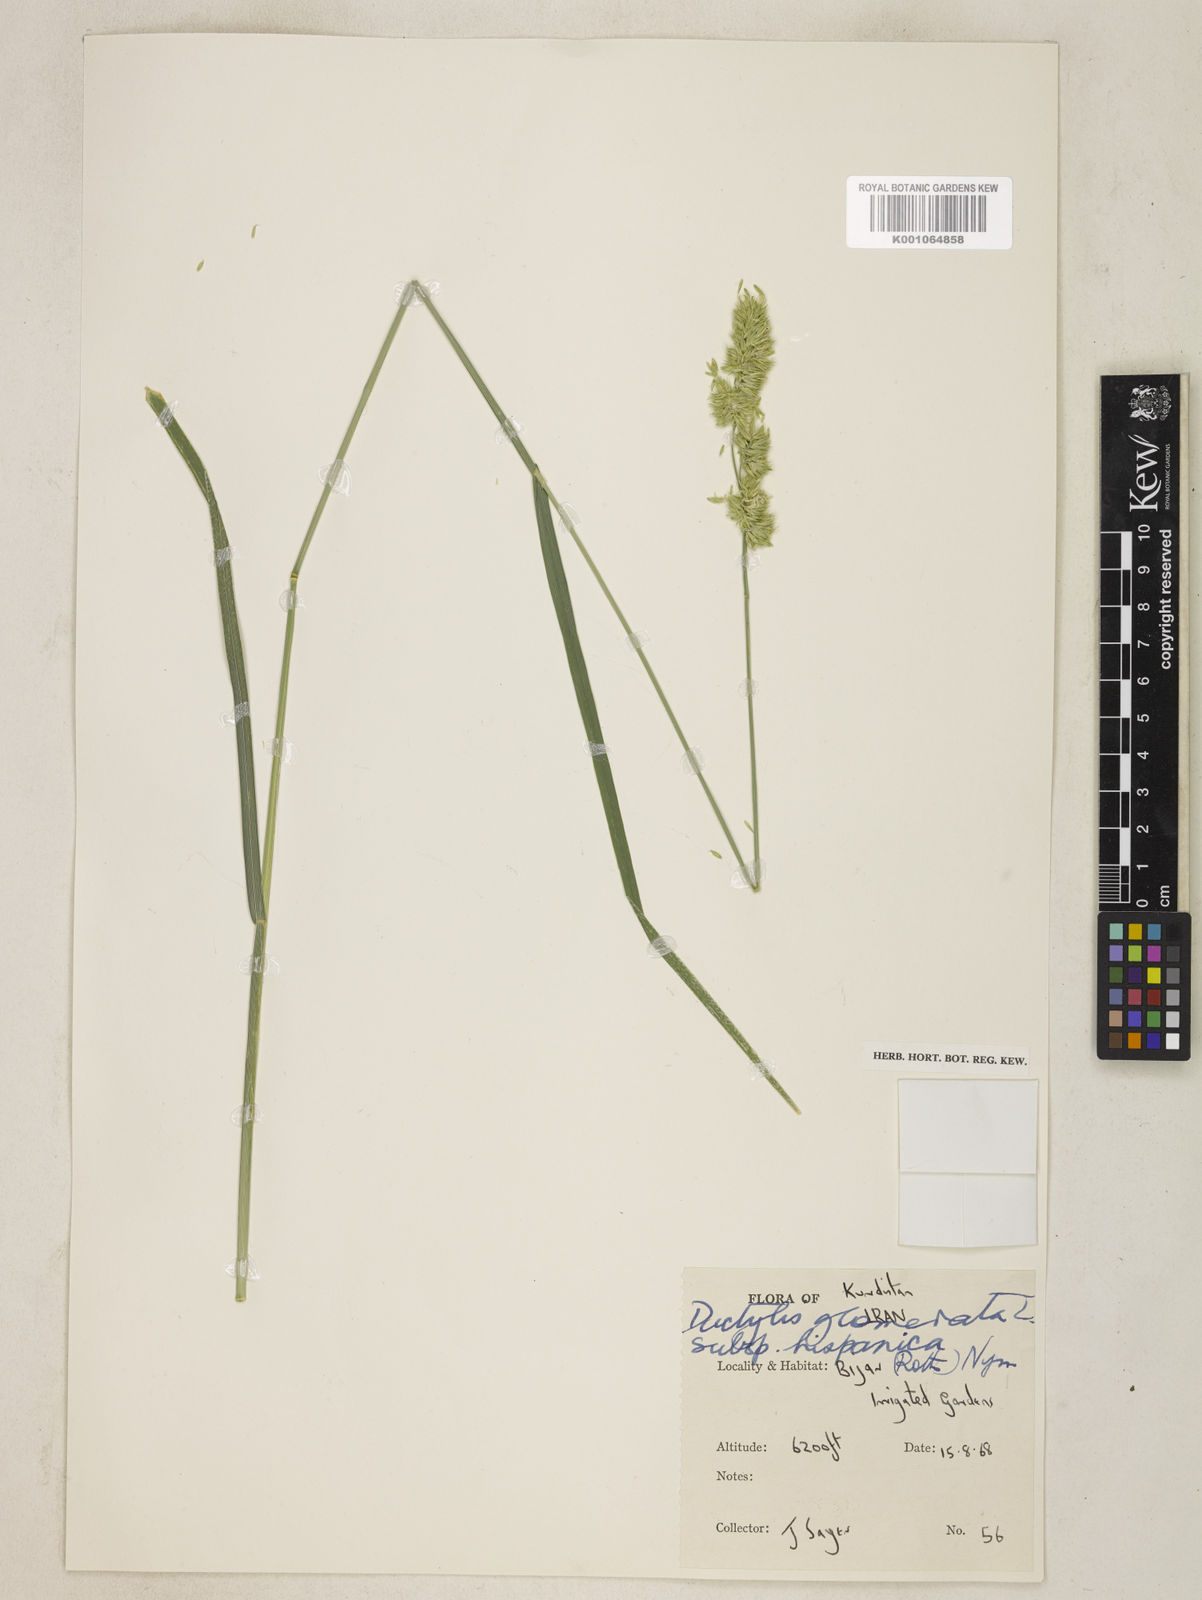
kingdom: Plantae
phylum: Tracheophyta
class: Liliopsida
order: Poales
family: Poaceae
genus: Dactylis
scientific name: Dactylis glomerata
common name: Orchardgrass
